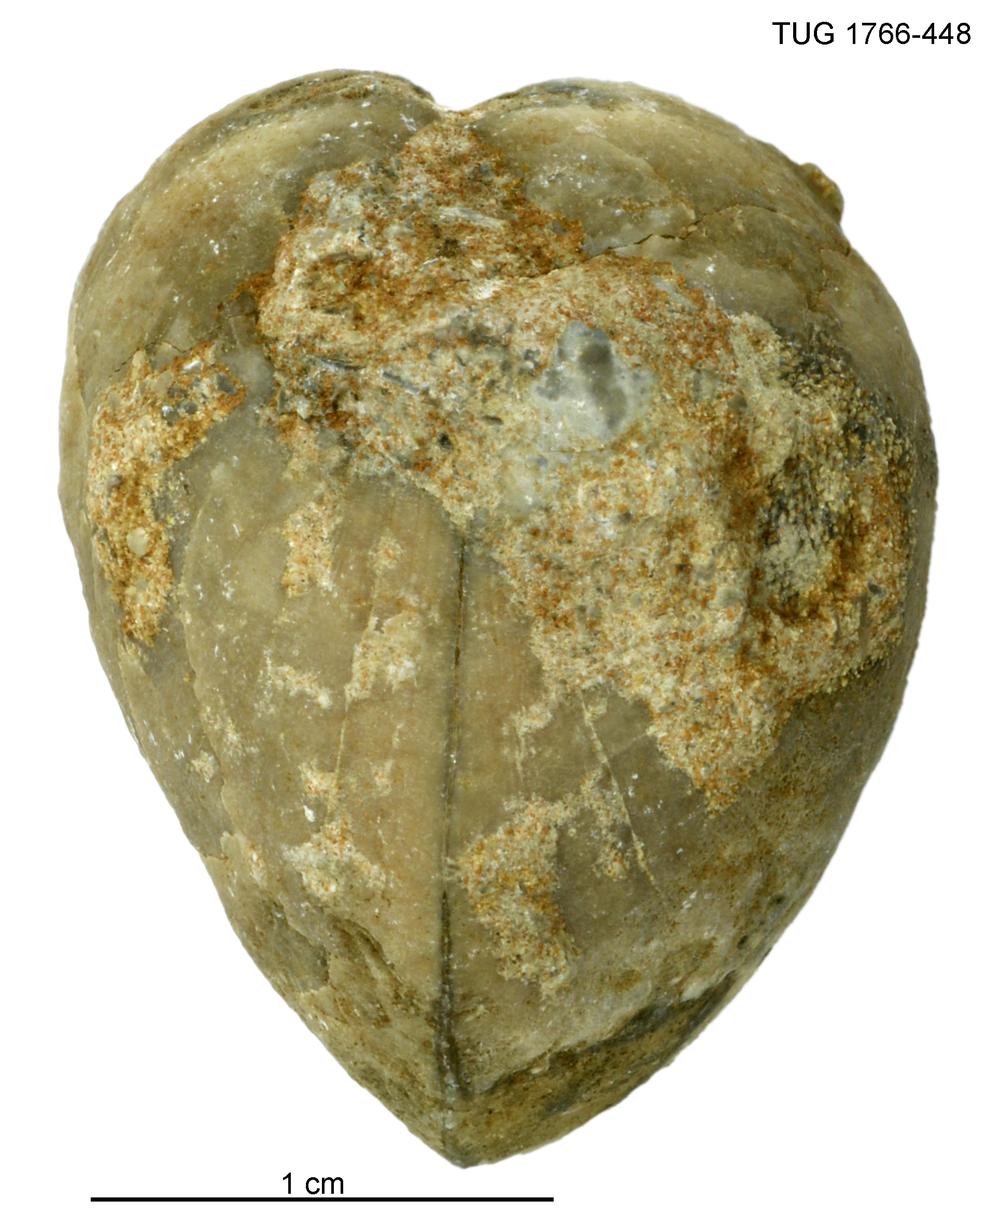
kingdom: Animalia
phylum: Brachiopoda
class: Rhynchonellata
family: Porambonitidae
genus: Porambonites
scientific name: Porambonites
